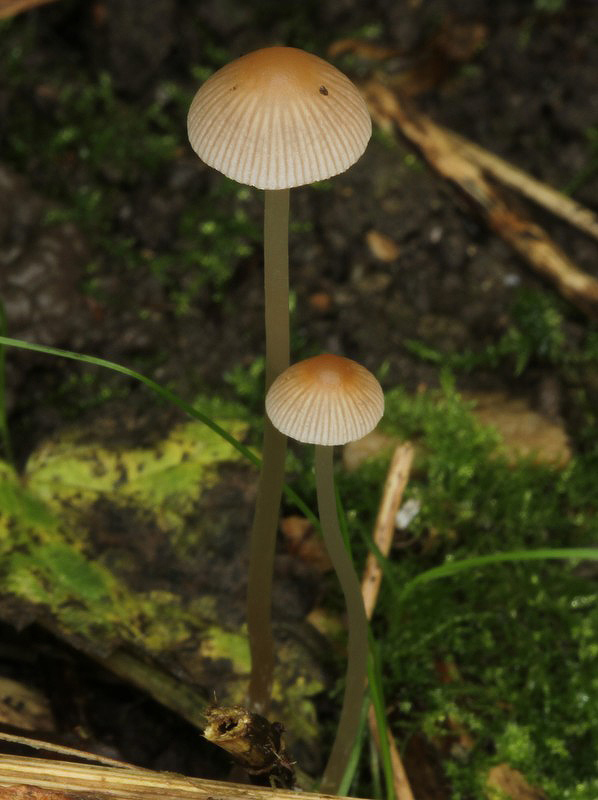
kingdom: Fungi
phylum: Basidiomycota
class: Agaricomycetes
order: Agaricales
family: Psathyrellaceae
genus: Psathyrella
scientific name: Psathyrella corrugis
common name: rødægget mørkhat
